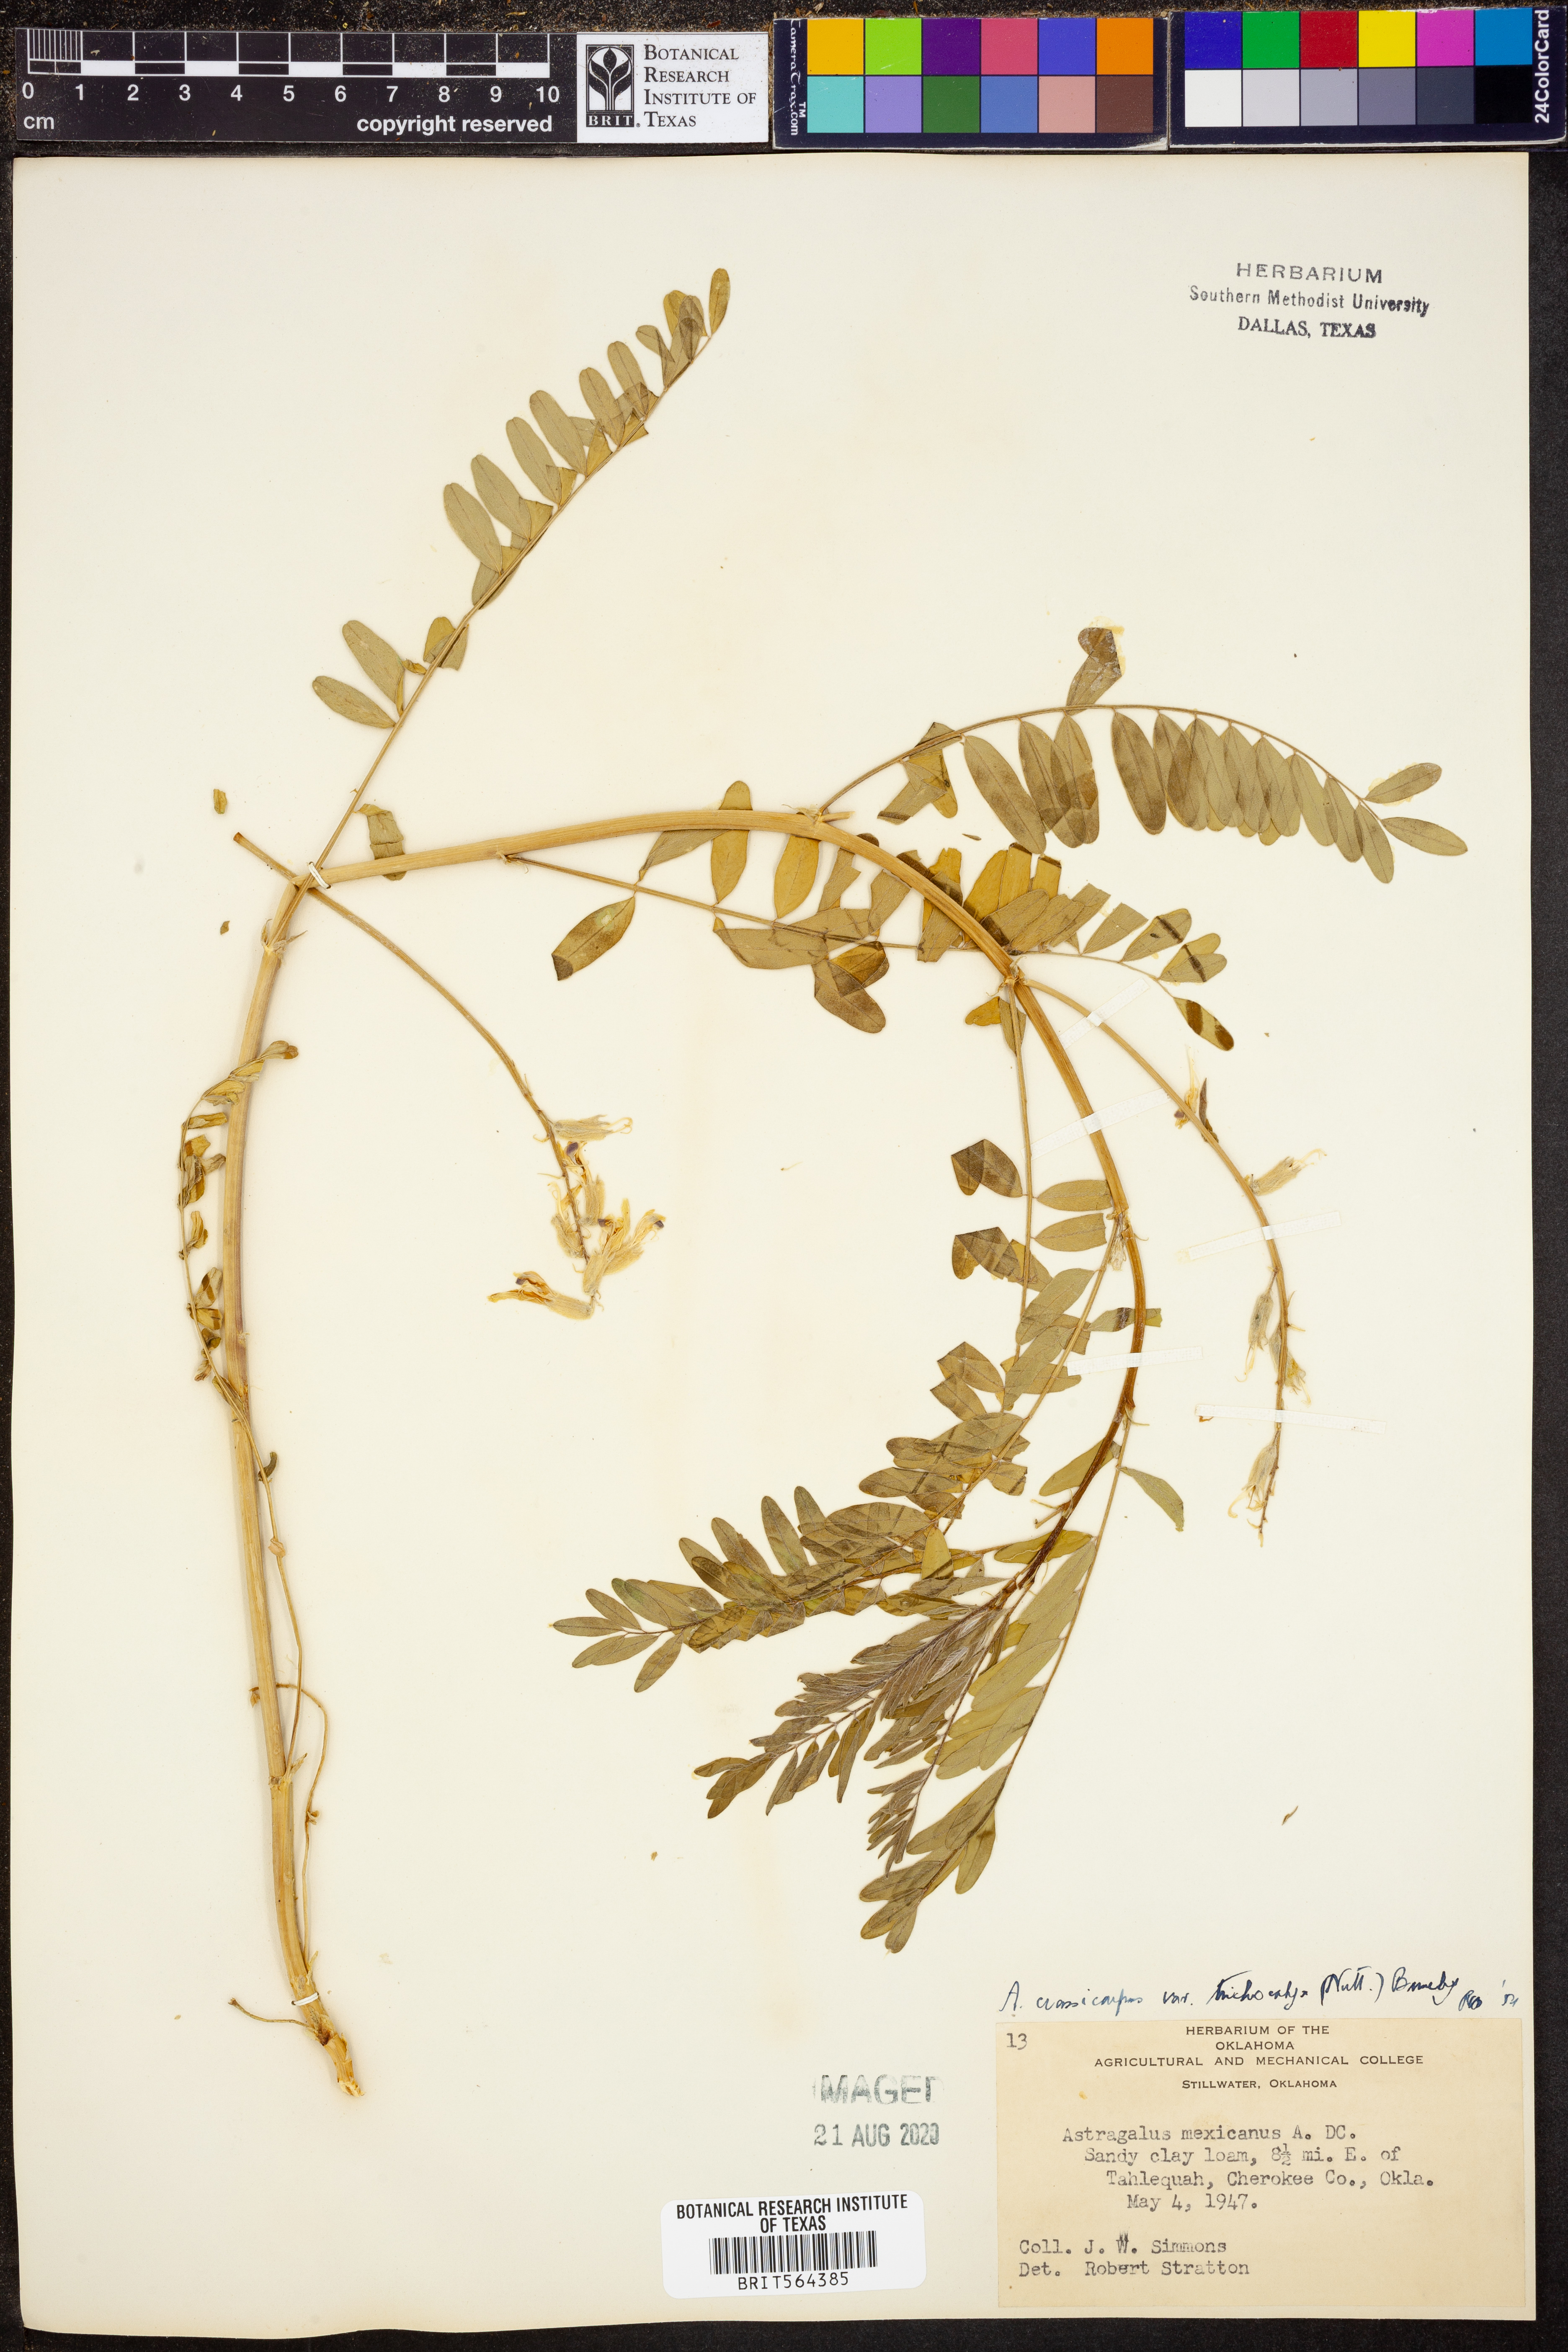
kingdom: Plantae
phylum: Tracheophyta
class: Magnoliopsida
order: Fabales
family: Fabaceae
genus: Astragalus
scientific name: Astragalus crassicarpus
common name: Ground-plum milk-vetch
